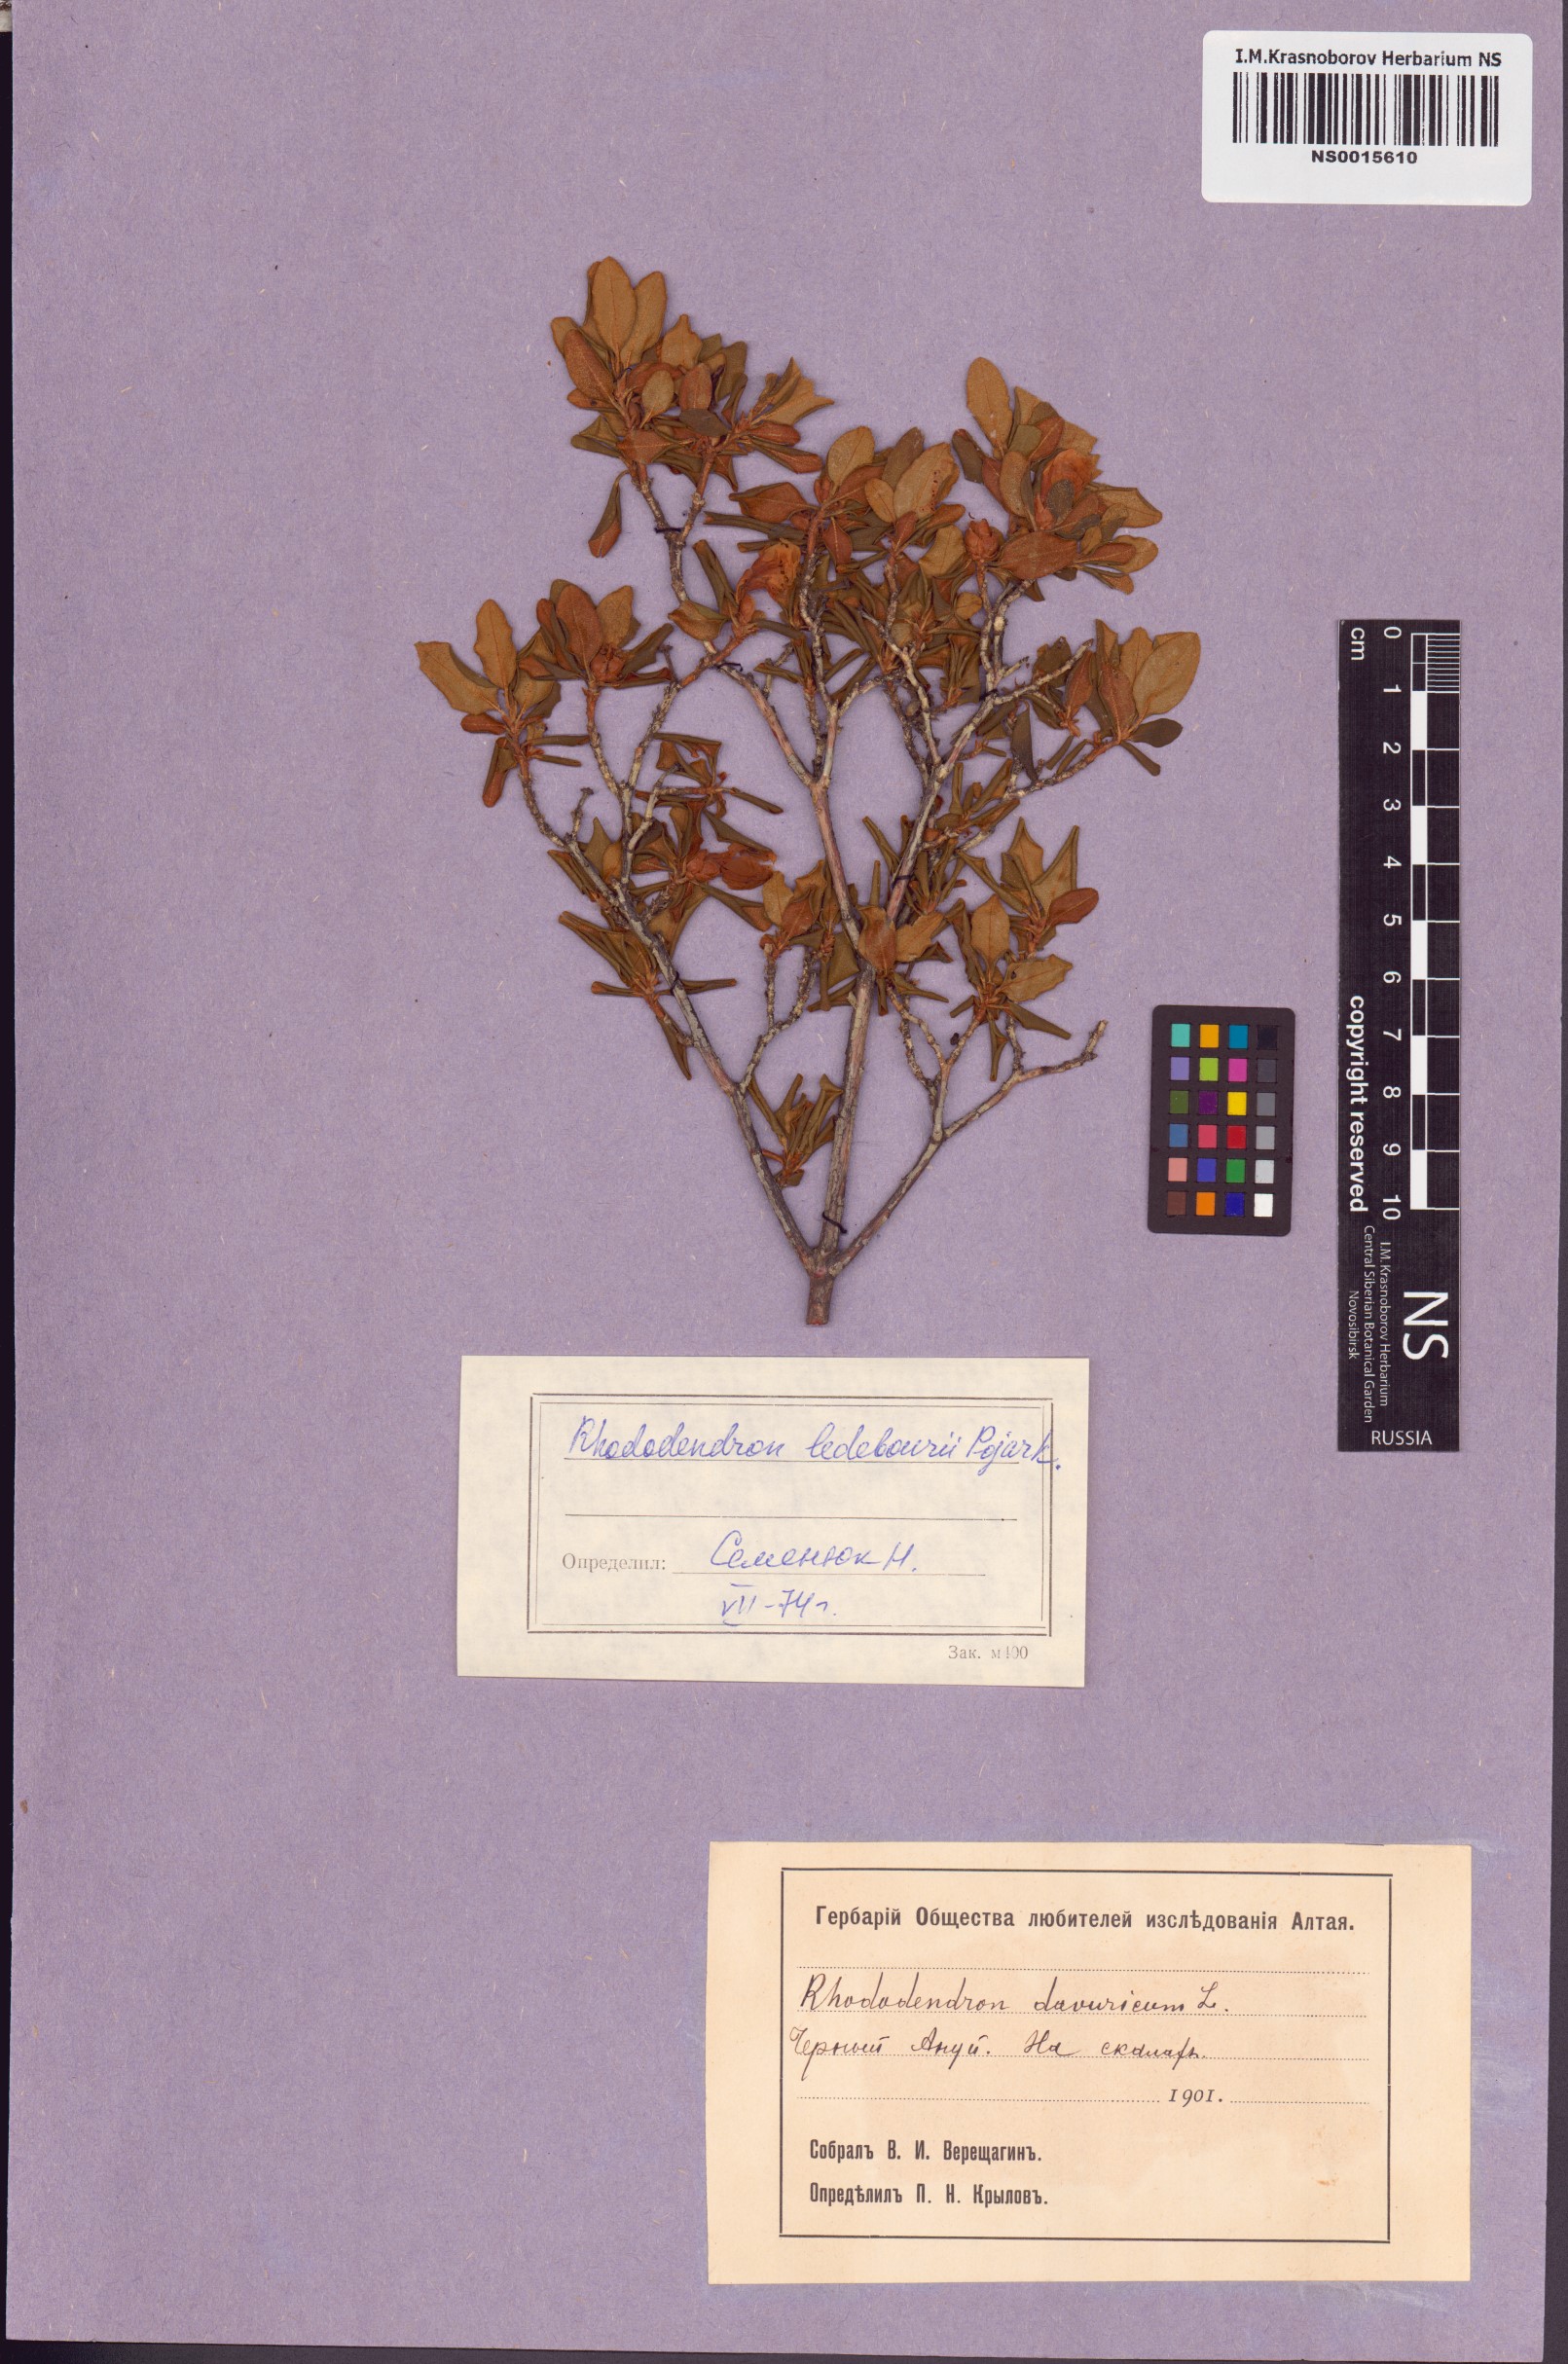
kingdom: Plantae
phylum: Tracheophyta
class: Magnoliopsida
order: Ericales
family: Ericaceae
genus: Rhododendron
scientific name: Rhododendron dauricum
